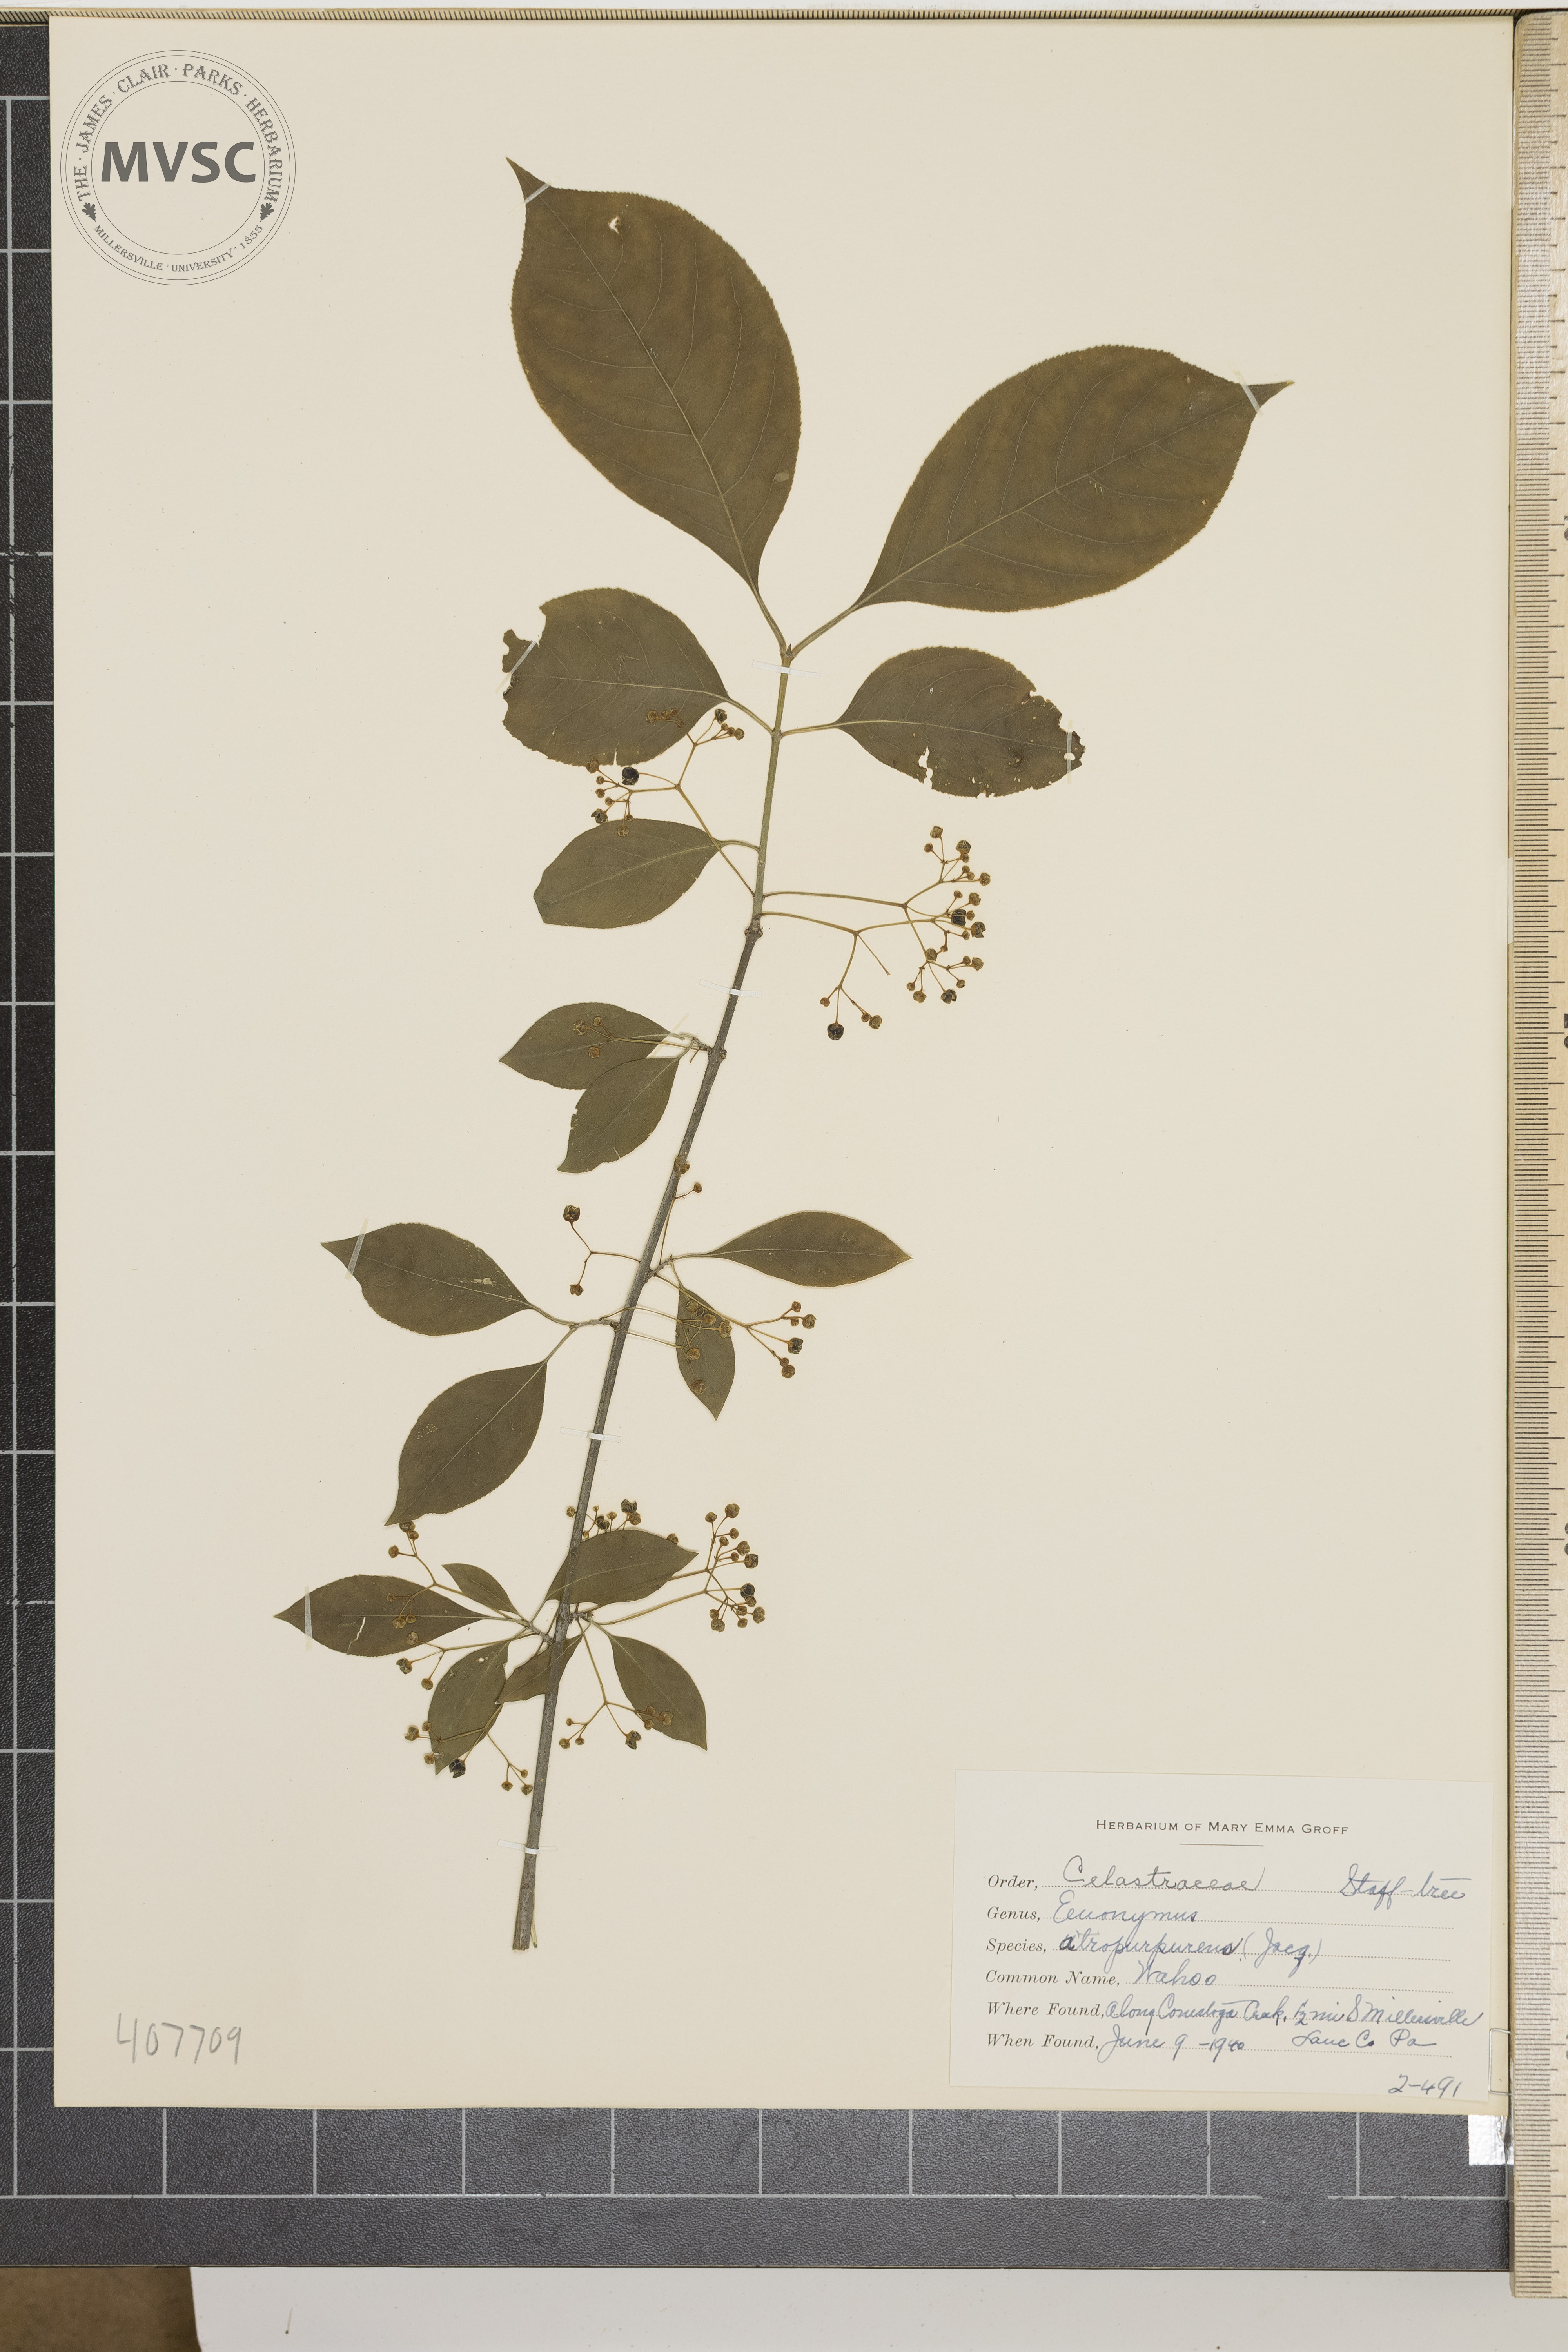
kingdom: Plantae
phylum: Tracheophyta
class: Magnoliopsida
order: Celastrales
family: Celastraceae
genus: Euonymus
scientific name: Euonymus atropurpureus
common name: Wahoo
